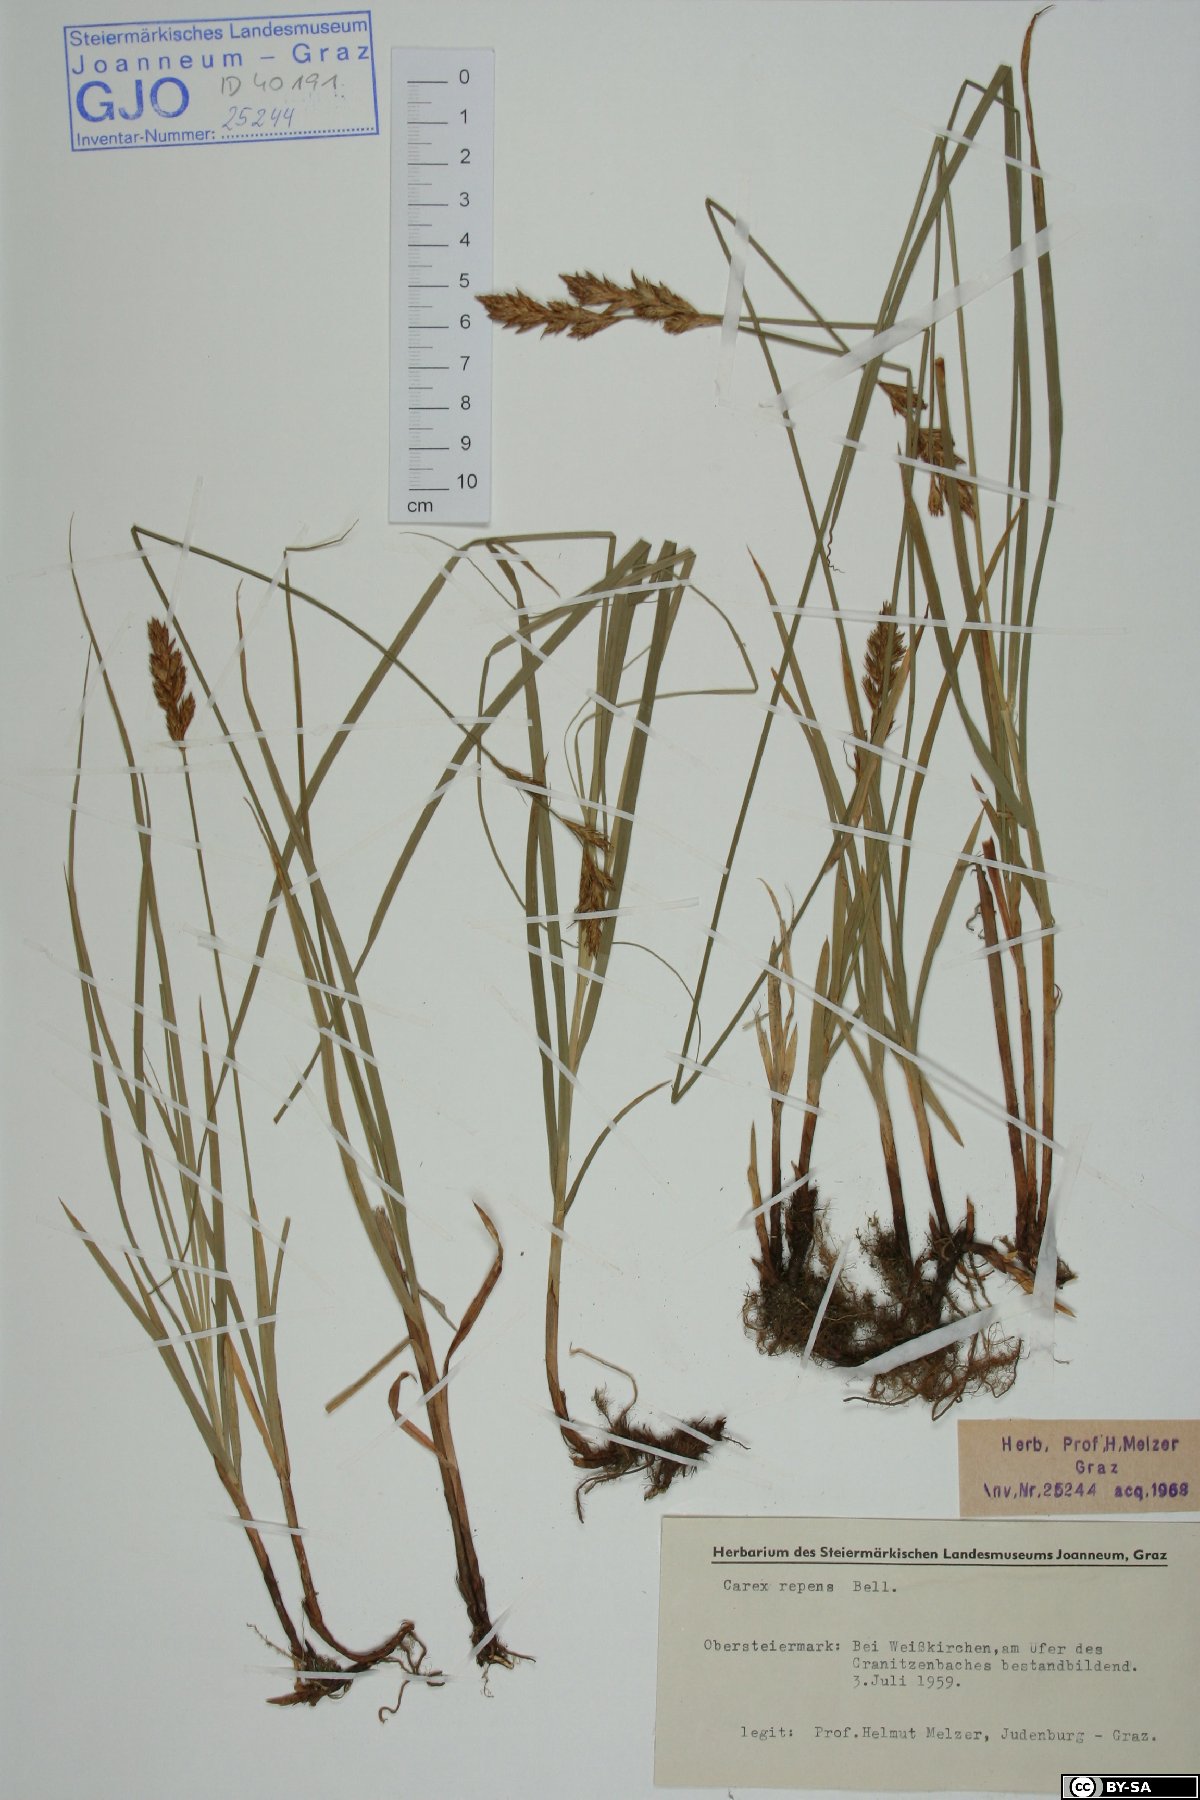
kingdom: Plantae
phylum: Tracheophyta
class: Liliopsida
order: Poales
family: Cyperaceae
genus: Carex
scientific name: Carex repens
